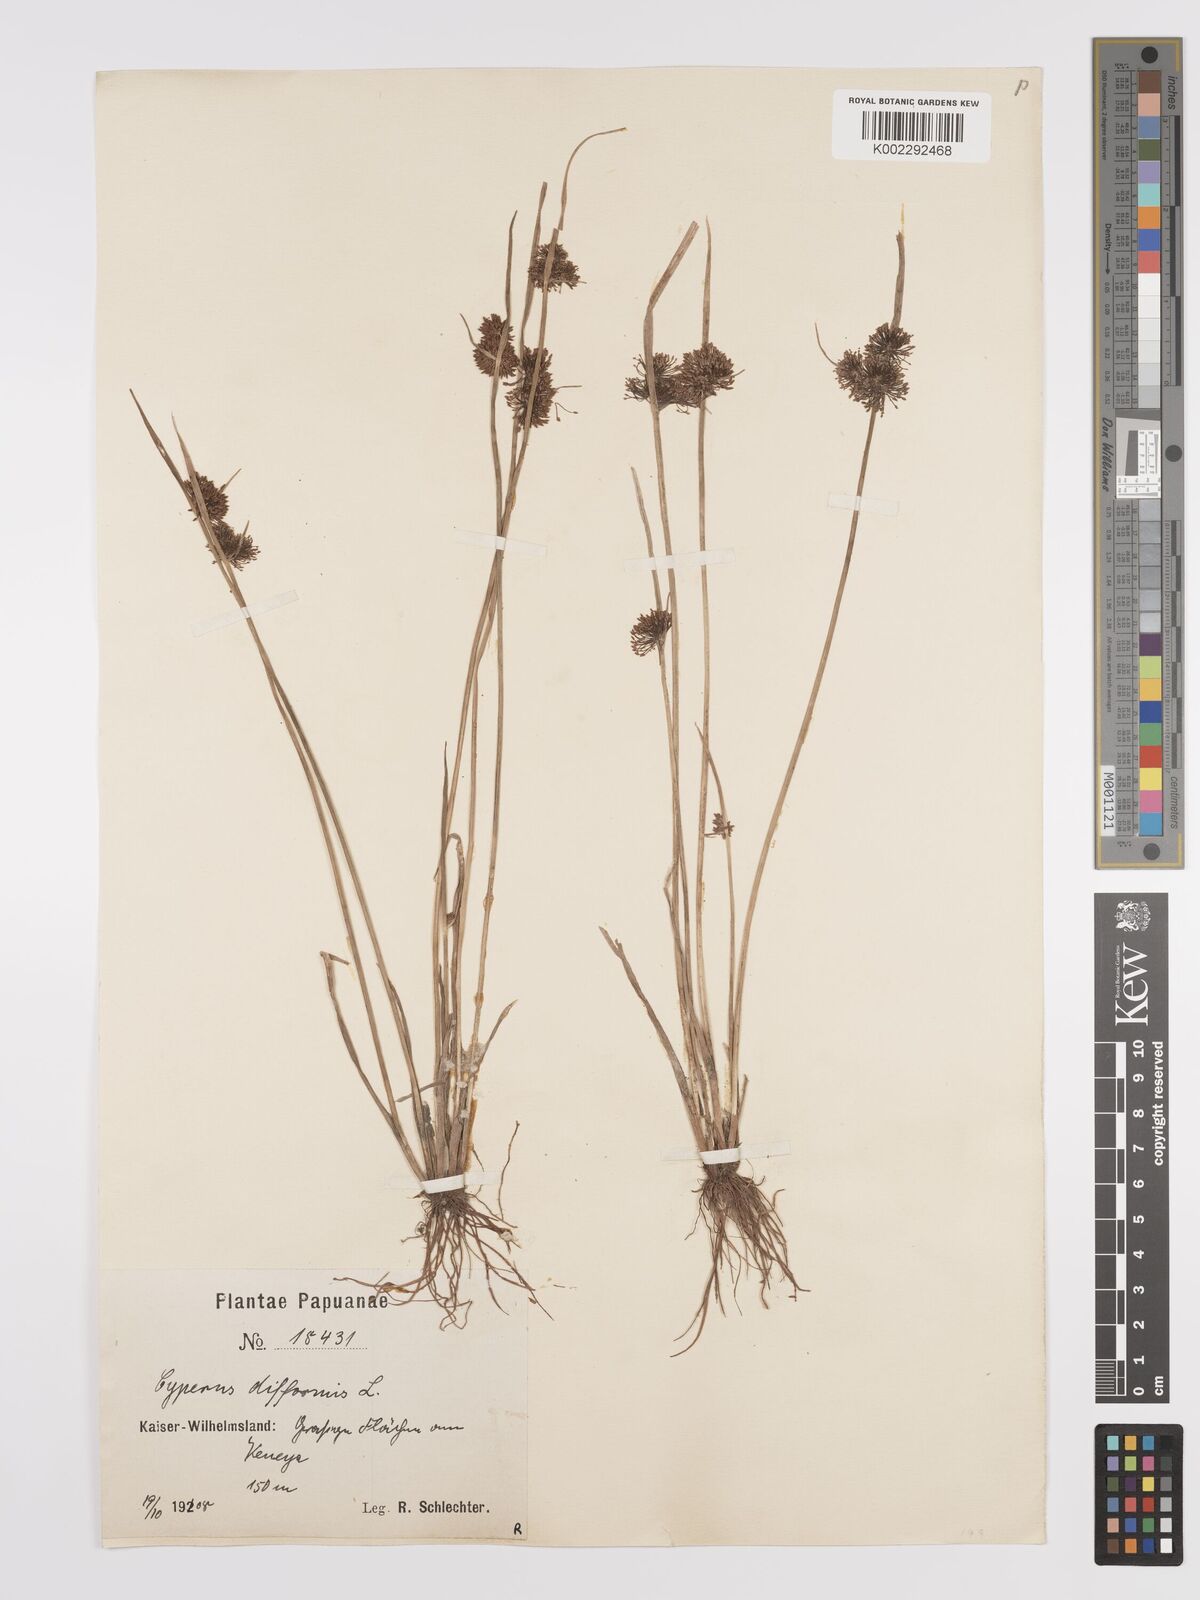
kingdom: Plantae
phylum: Tracheophyta
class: Liliopsida
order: Poales
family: Cyperaceae
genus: Cyperus
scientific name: Cyperus difformis
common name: Variable flatsedge
